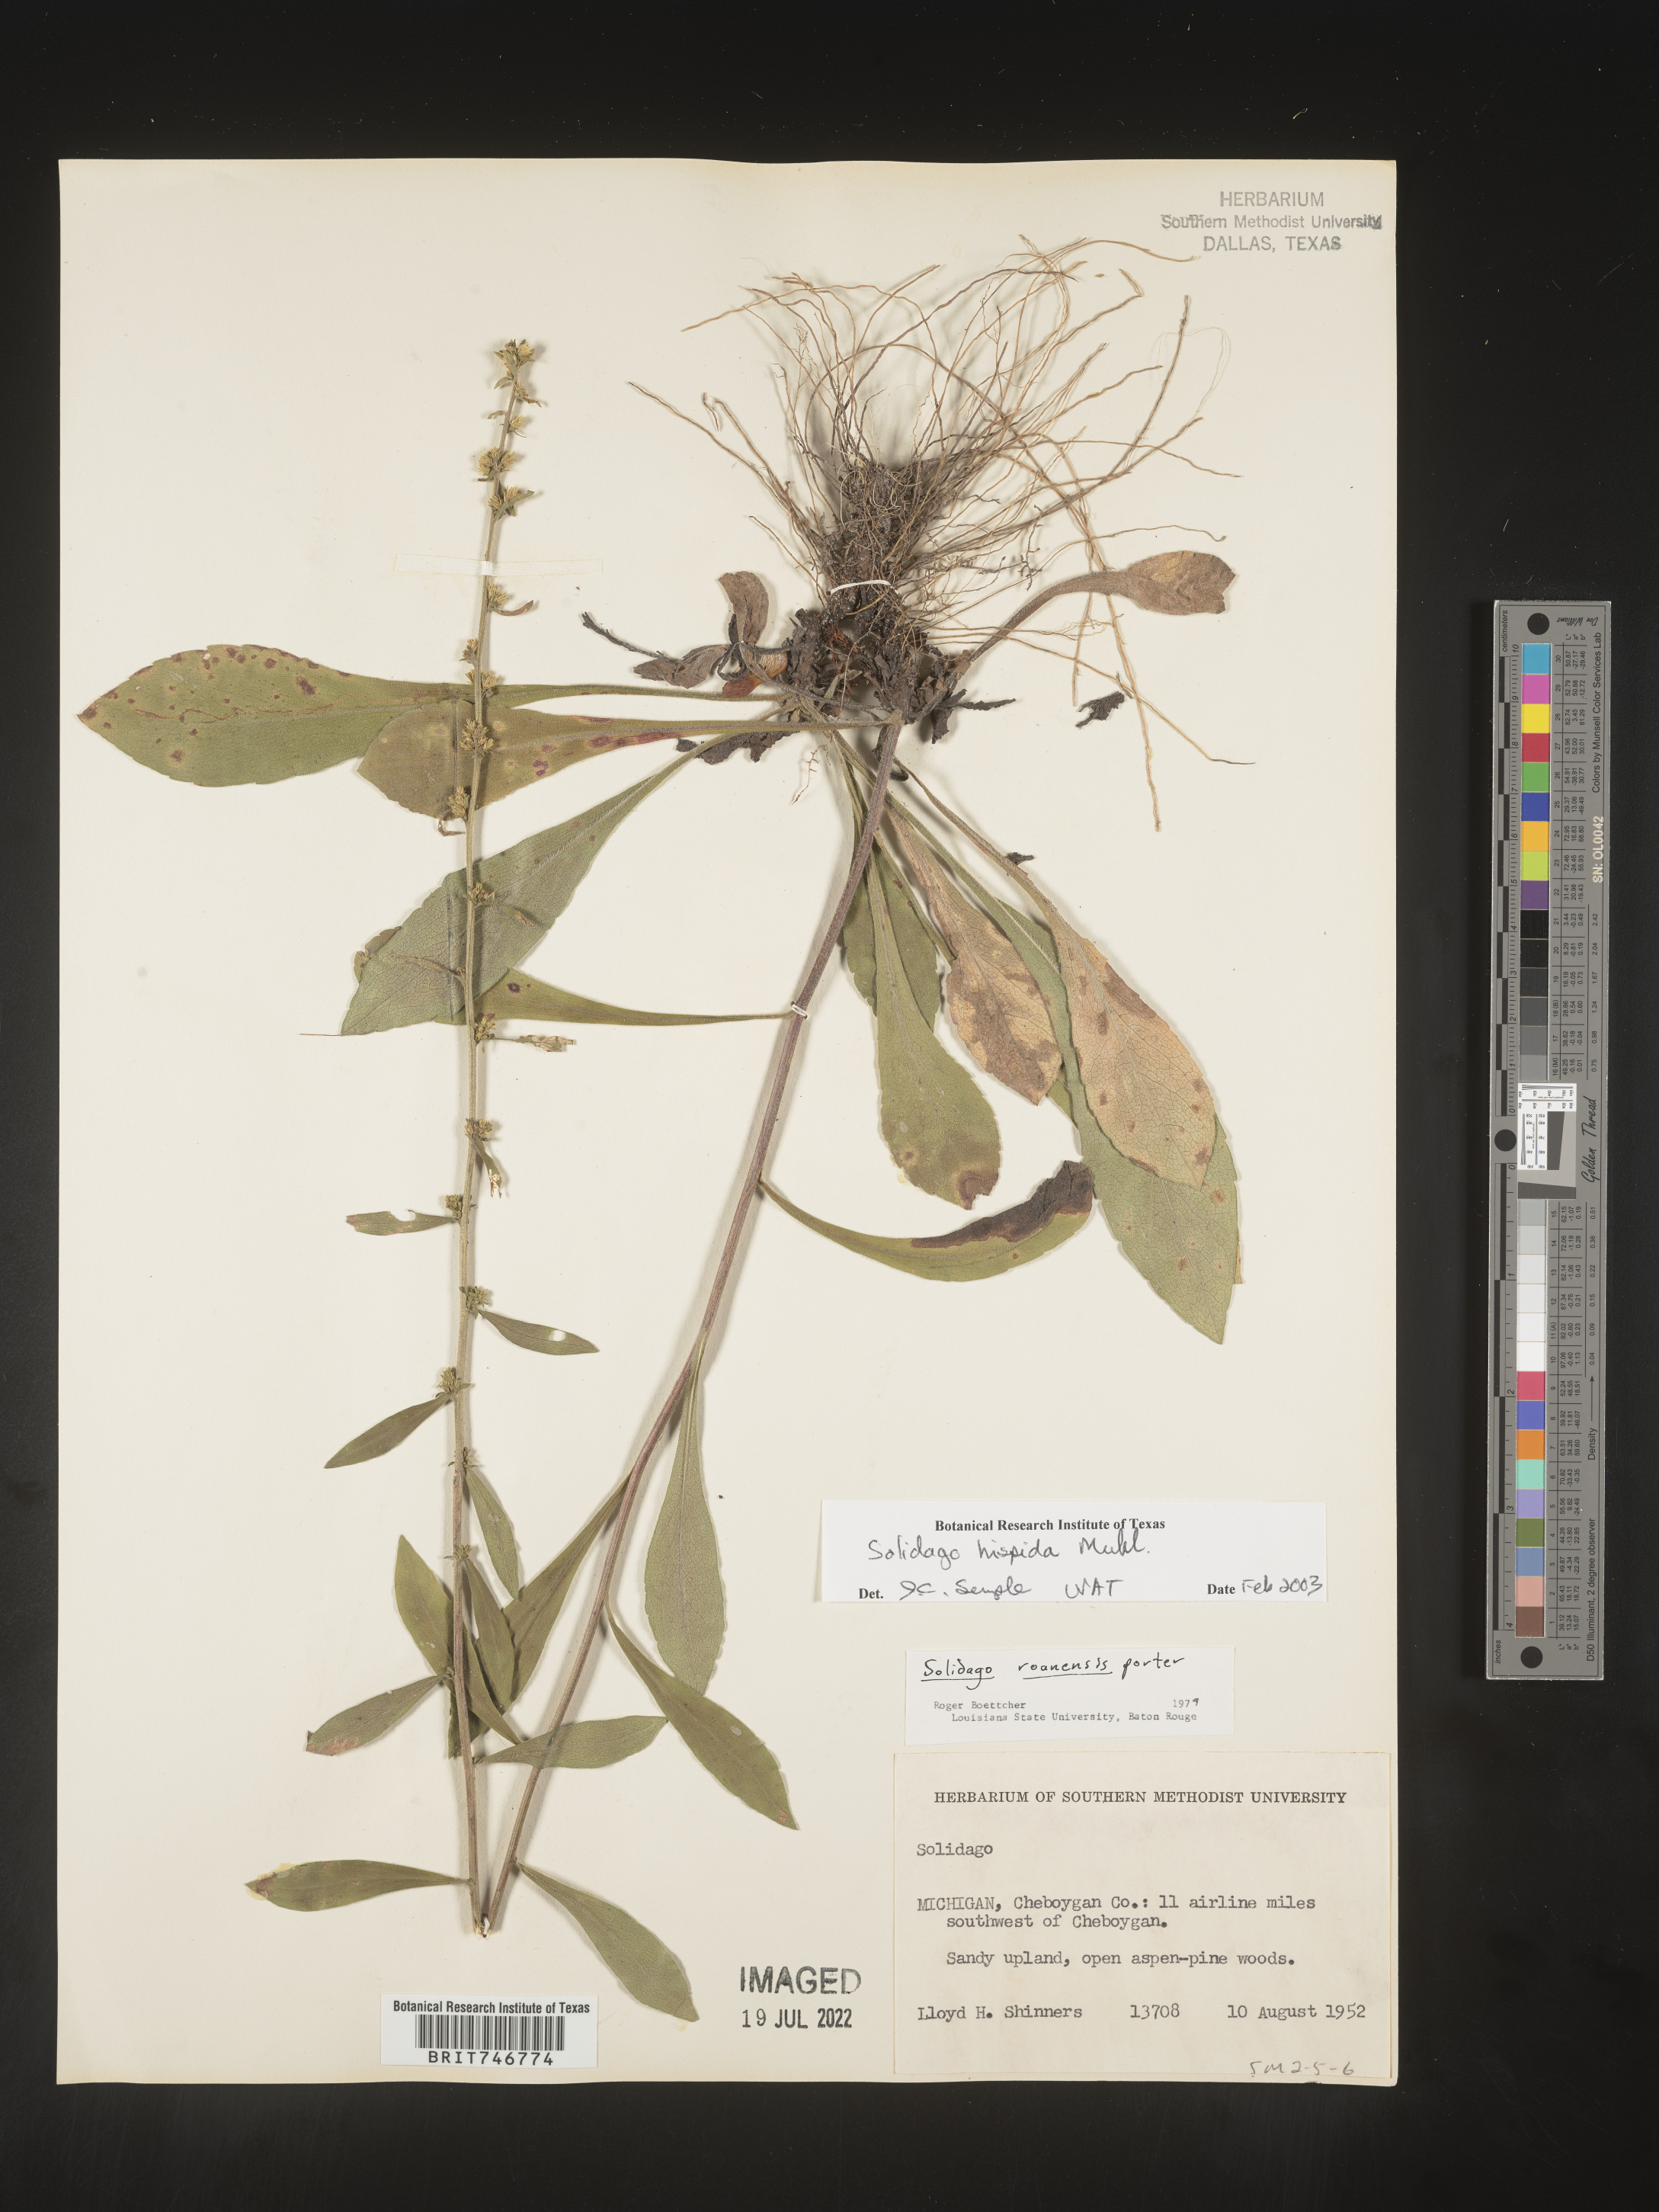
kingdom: Plantae
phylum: Tracheophyta
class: Magnoliopsida
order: Asterales
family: Asteraceae
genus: Solidago
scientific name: Solidago hispida
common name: Hairy goldenrod
